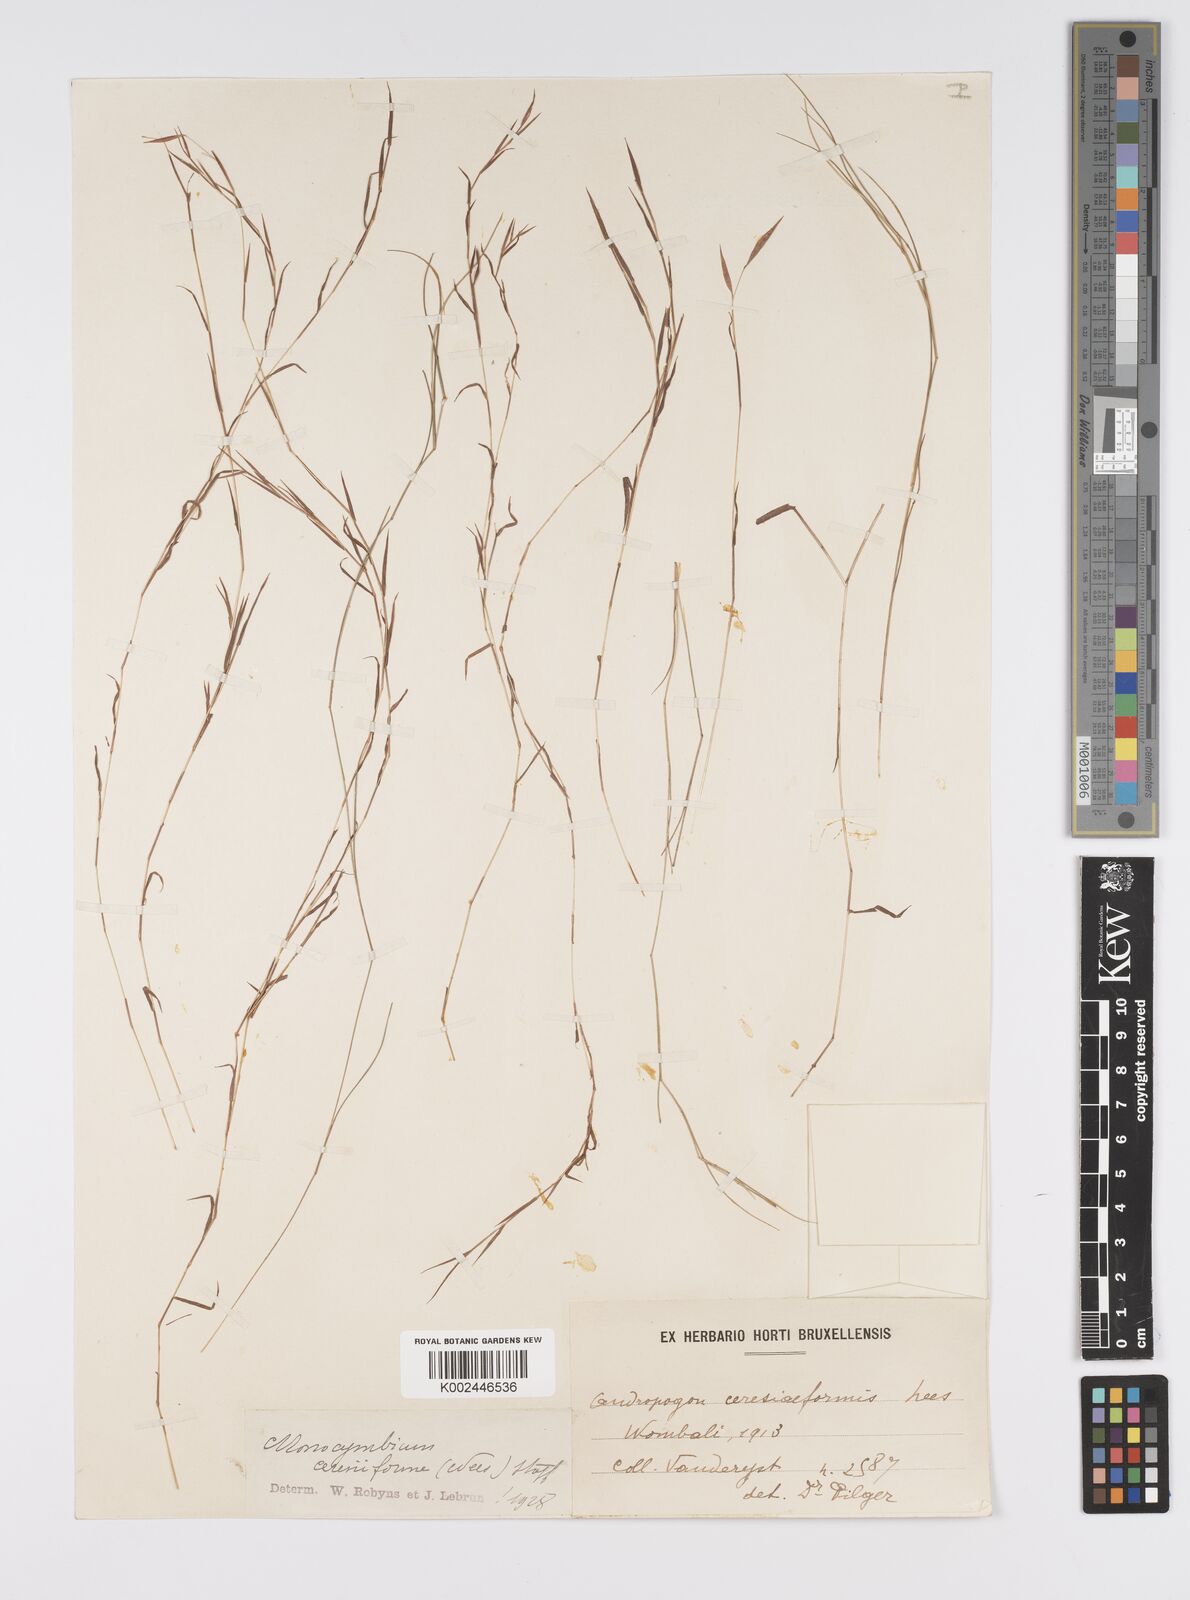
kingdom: Plantae
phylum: Tracheophyta
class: Liliopsida
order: Poales
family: Poaceae
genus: Monocymbium
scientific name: Monocymbium ceresiiforme
